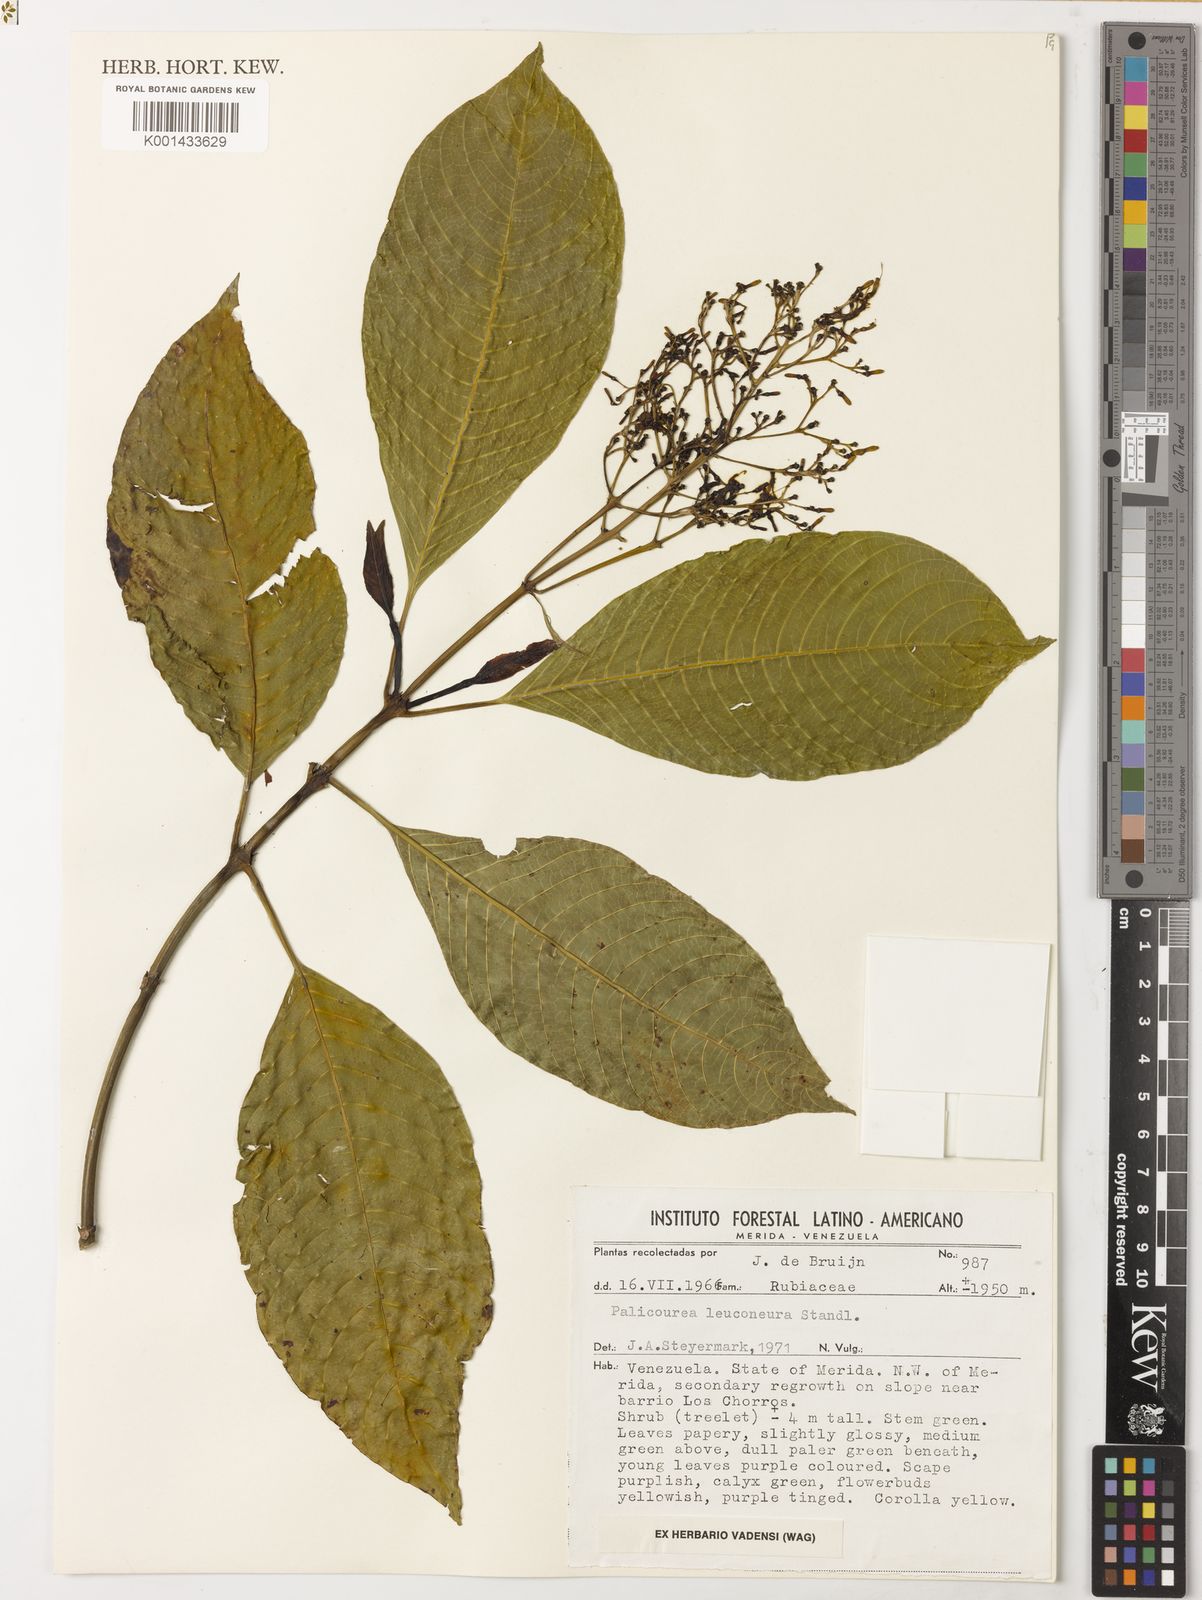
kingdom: Plantae
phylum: Tracheophyta
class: Magnoliopsida
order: Gentianales
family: Rubiaceae
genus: Palicourea
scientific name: Palicourea leuconeura
